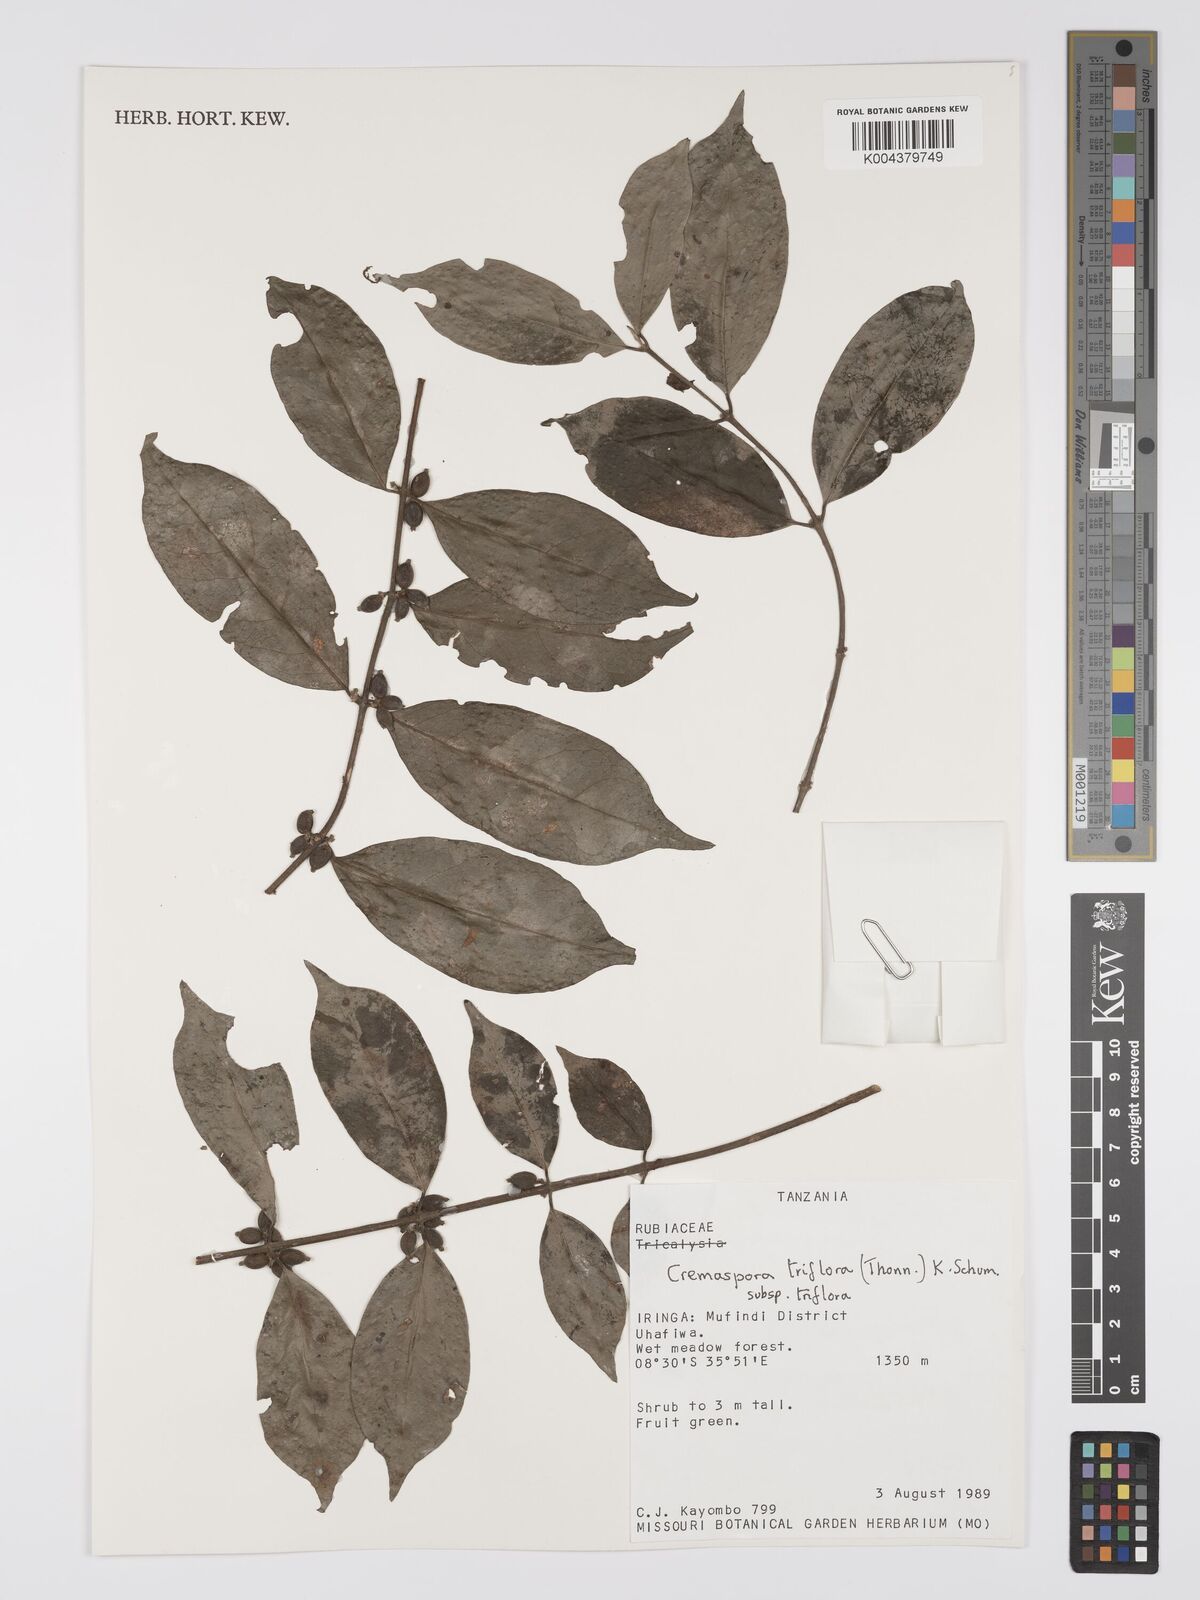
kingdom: Plantae
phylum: Tracheophyta
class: Magnoliopsida
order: Gentianales
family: Rubiaceae
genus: Cremaspora
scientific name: Cremaspora triflora
